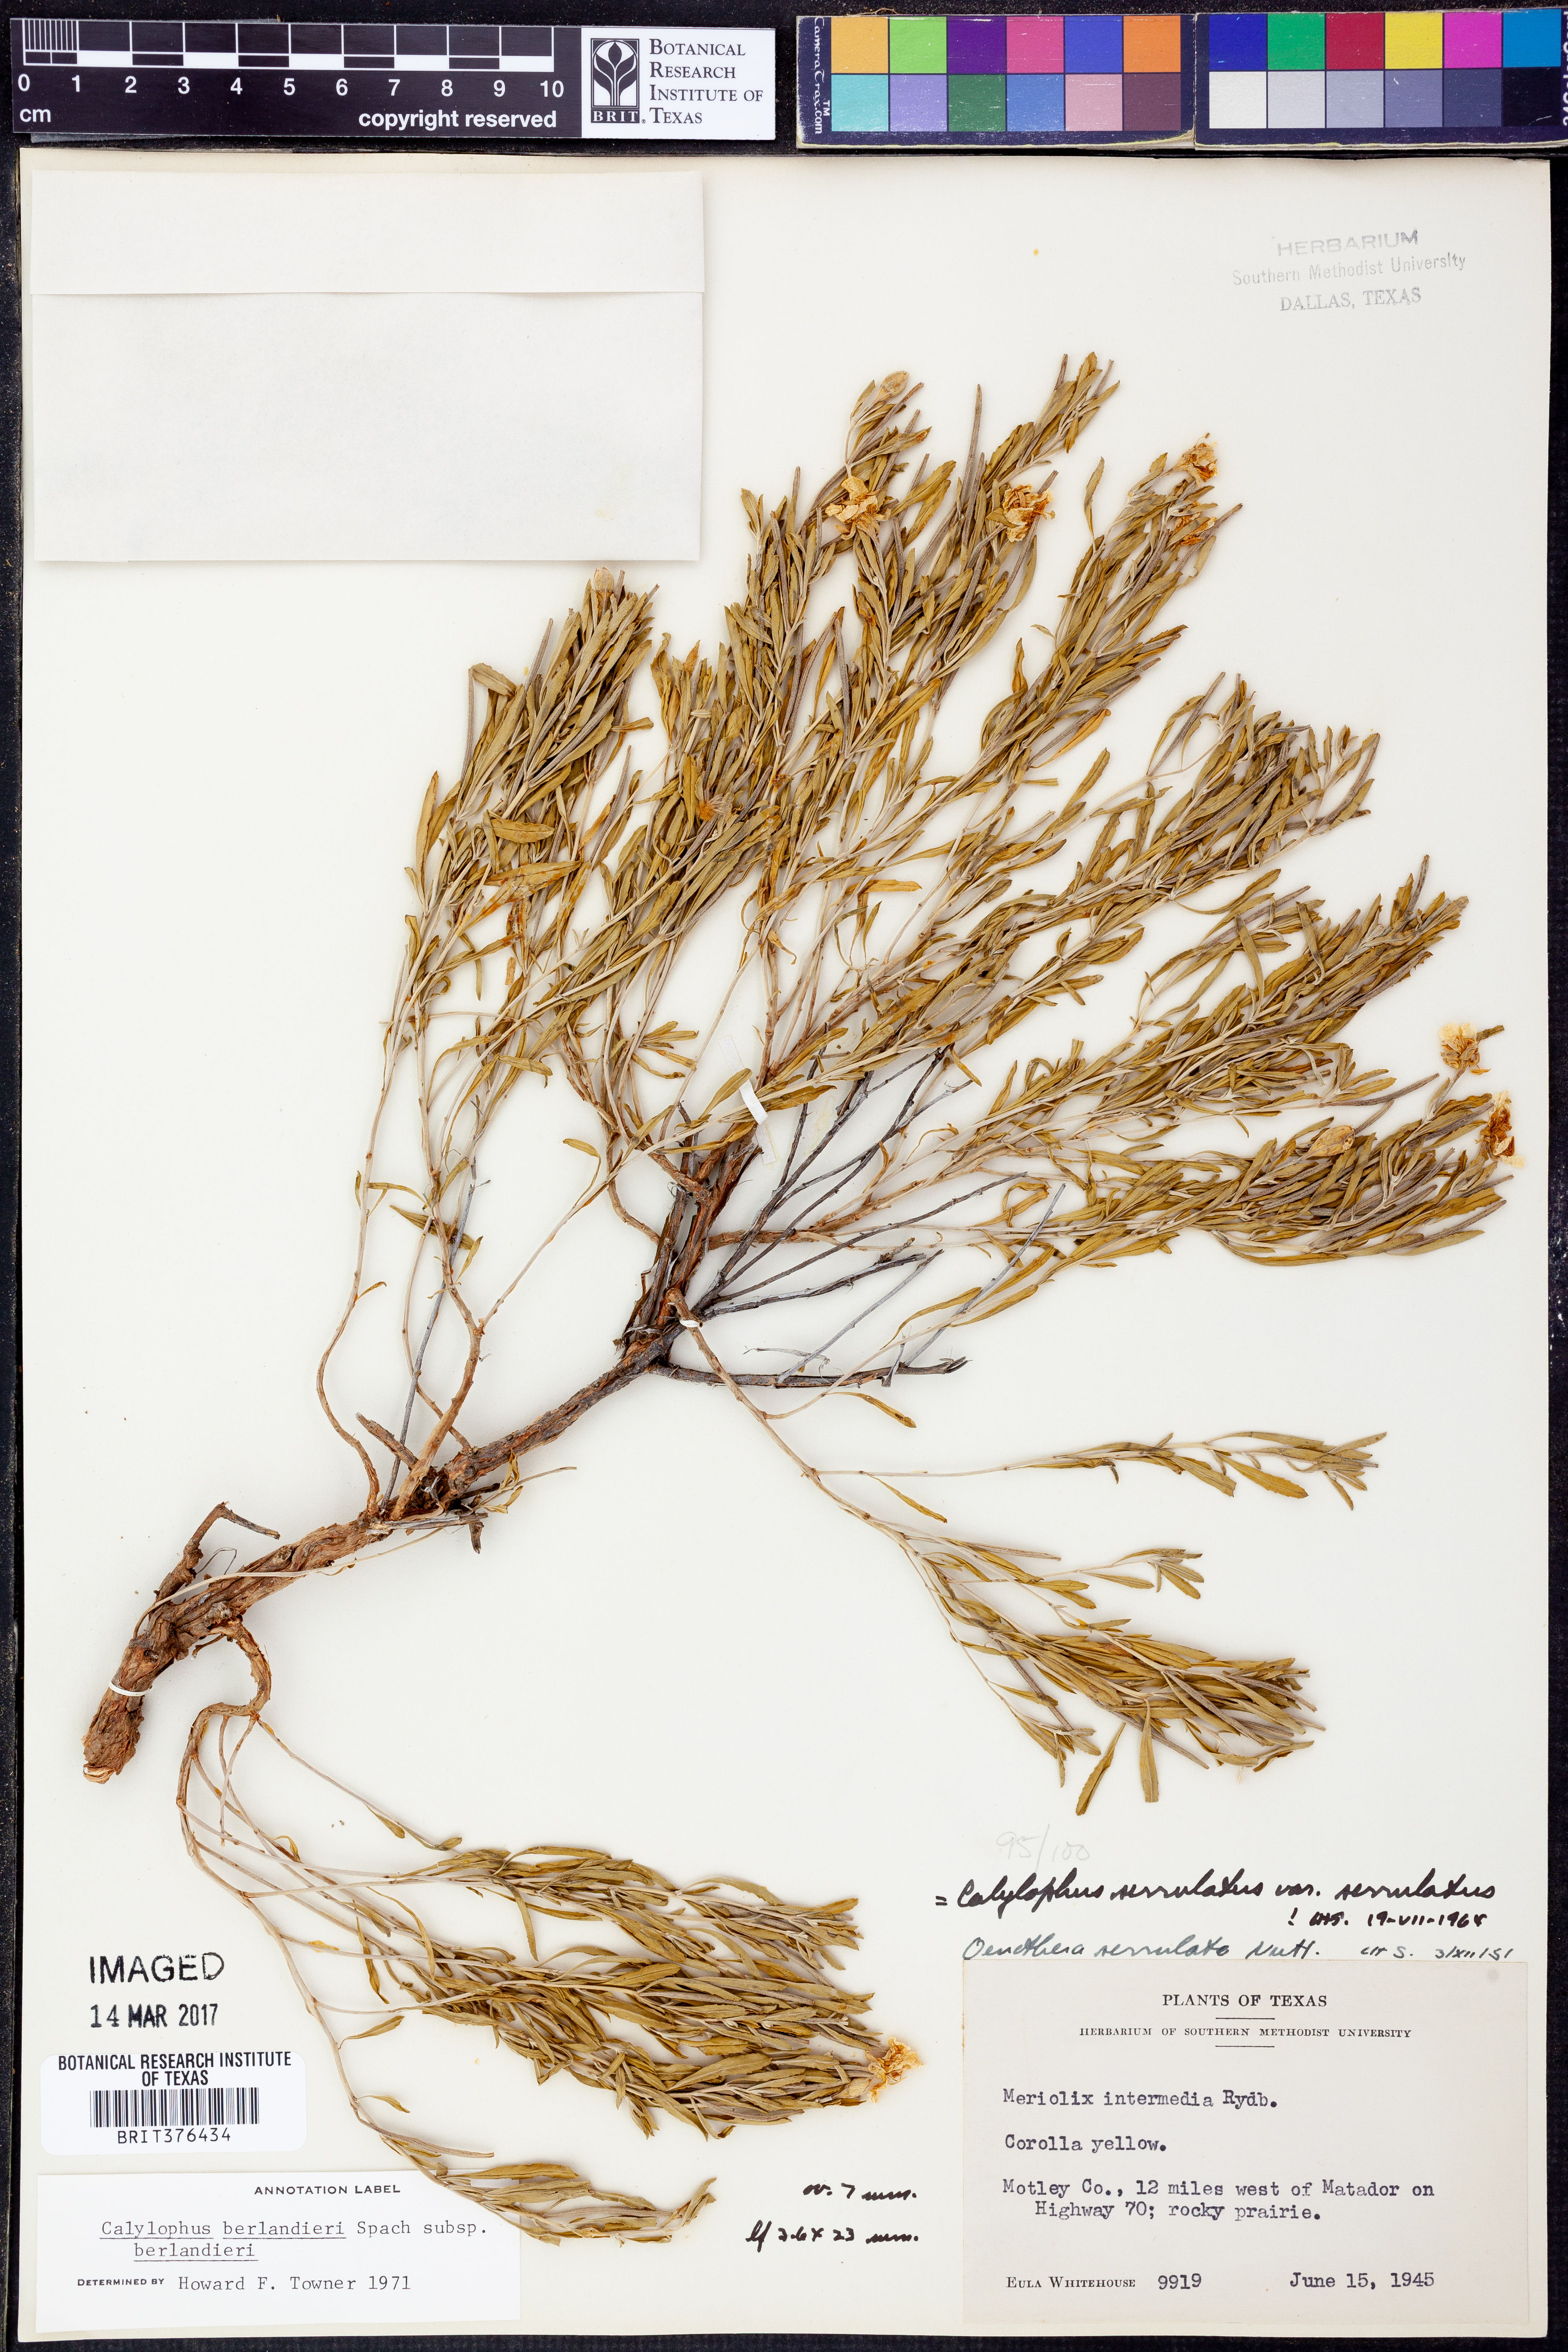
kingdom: Plantae
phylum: Tracheophyta
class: Magnoliopsida
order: Myrtales
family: Onagraceae
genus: Oenothera
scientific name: Oenothera capillifolia
